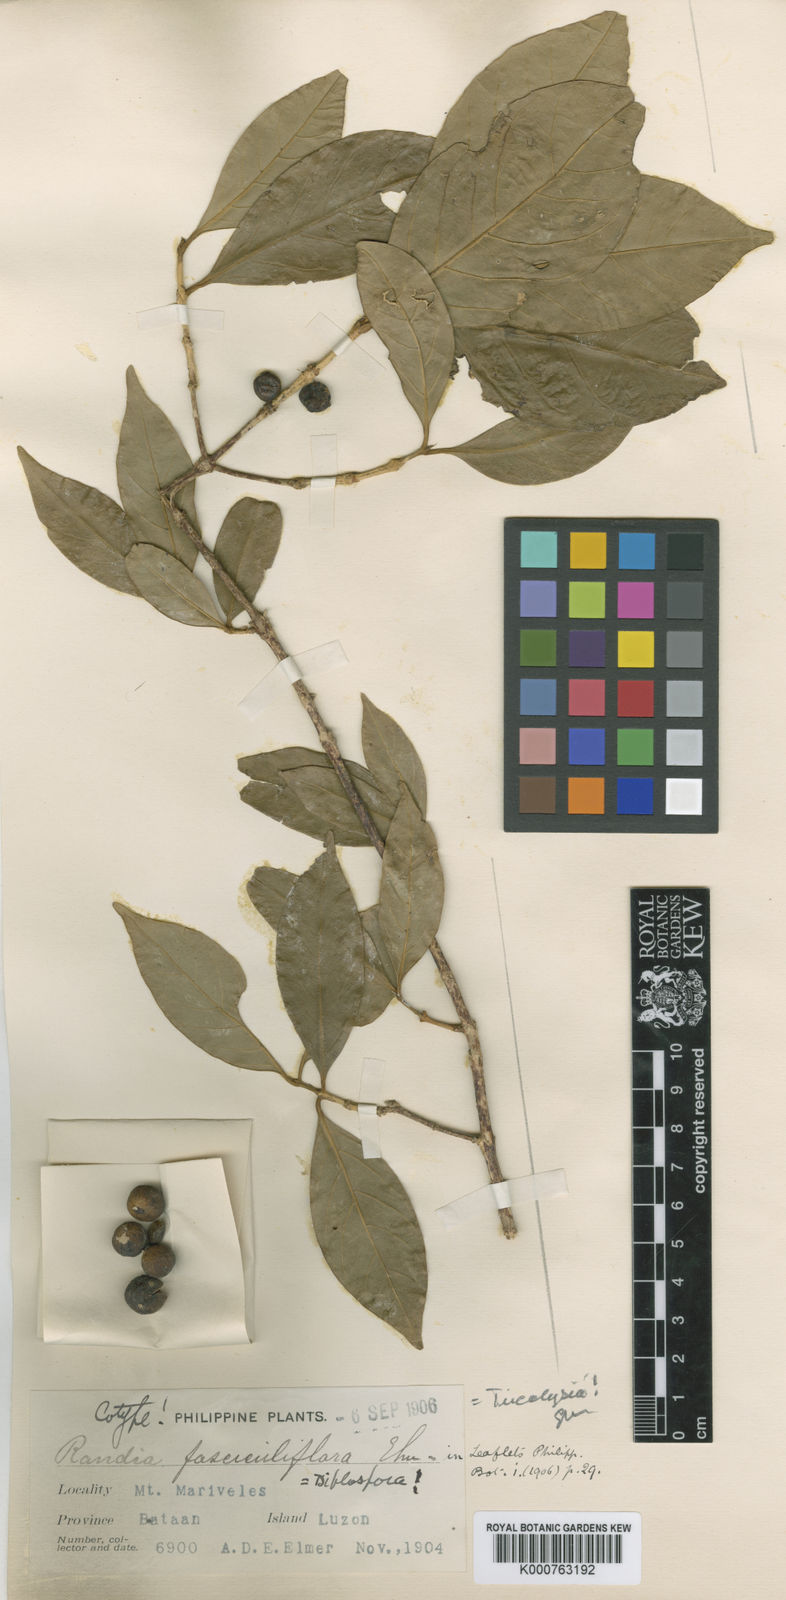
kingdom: Plantae
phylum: Tracheophyta
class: Magnoliopsida
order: Gentianales
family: Rubiaceae
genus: Discospermum
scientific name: Discospermum
